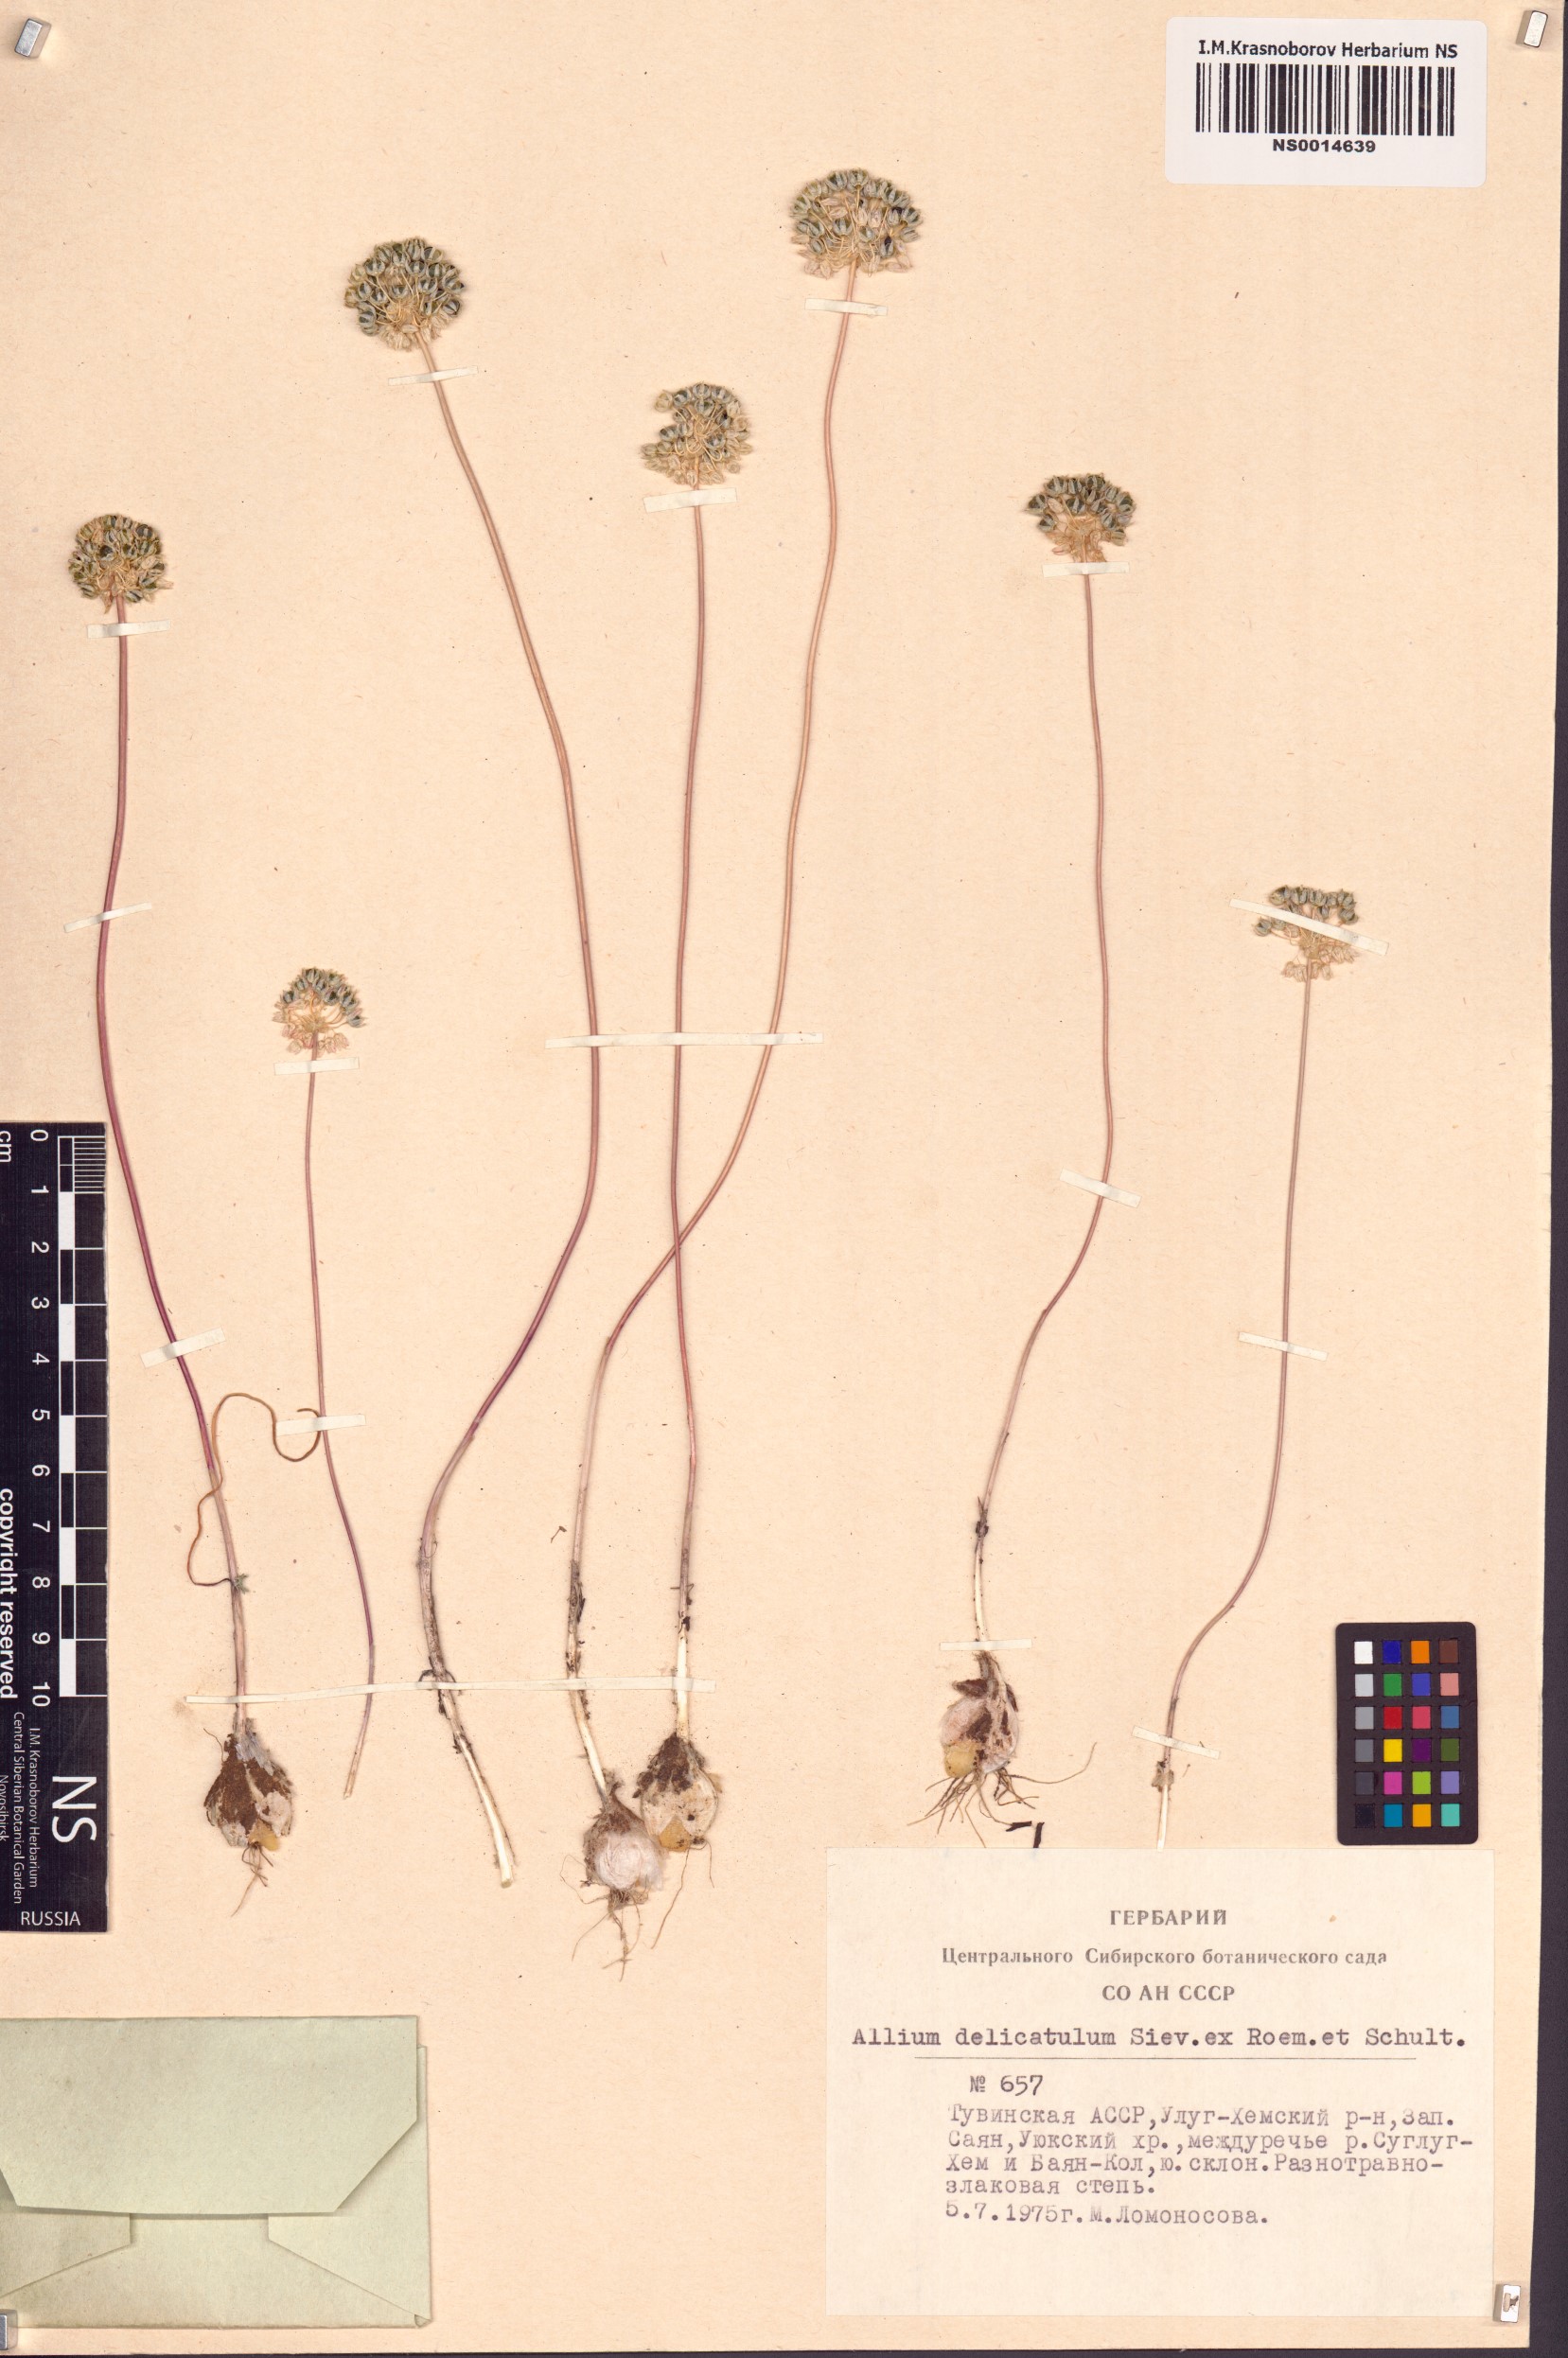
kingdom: Plantae
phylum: Tracheophyta
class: Liliopsida
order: Asparagales
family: Amaryllidaceae
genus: Allium
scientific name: Allium delicatulum
